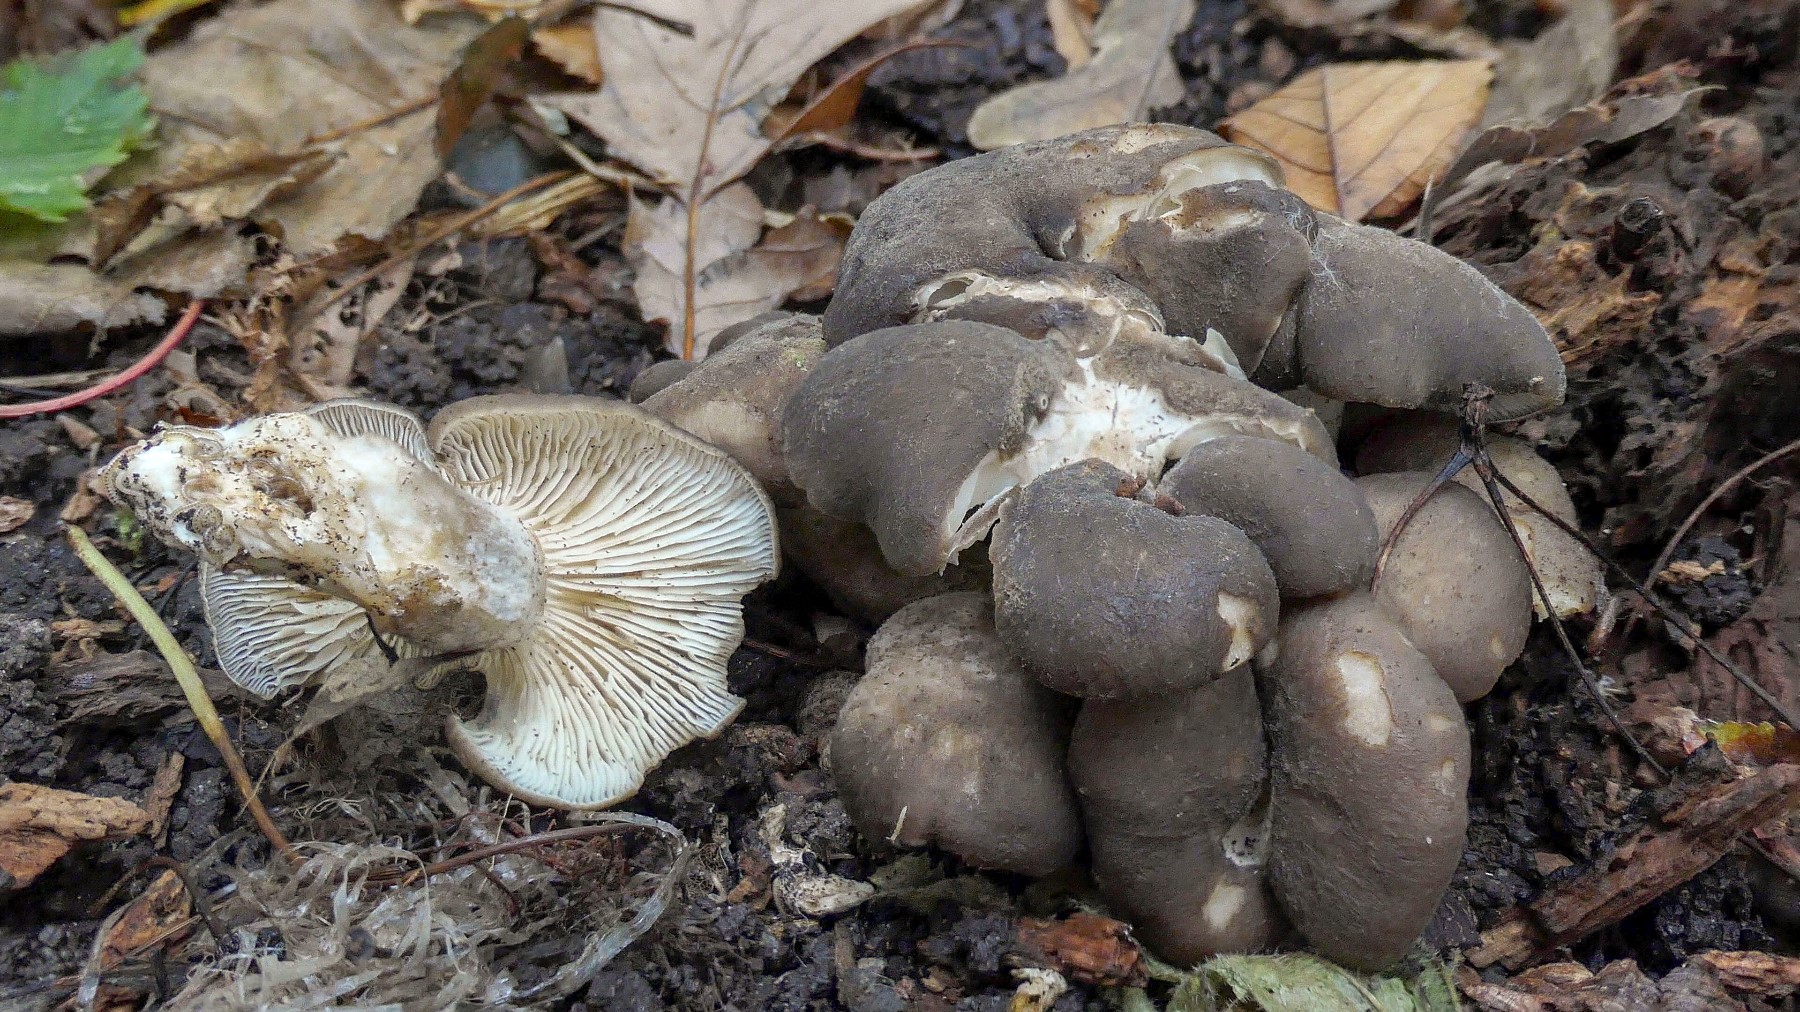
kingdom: Fungi
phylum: Basidiomycota
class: Agaricomycetes
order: Agaricales
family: Lyophyllaceae
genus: Lyophyllum
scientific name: Lyophyllum decastes
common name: røggrå gråblad
